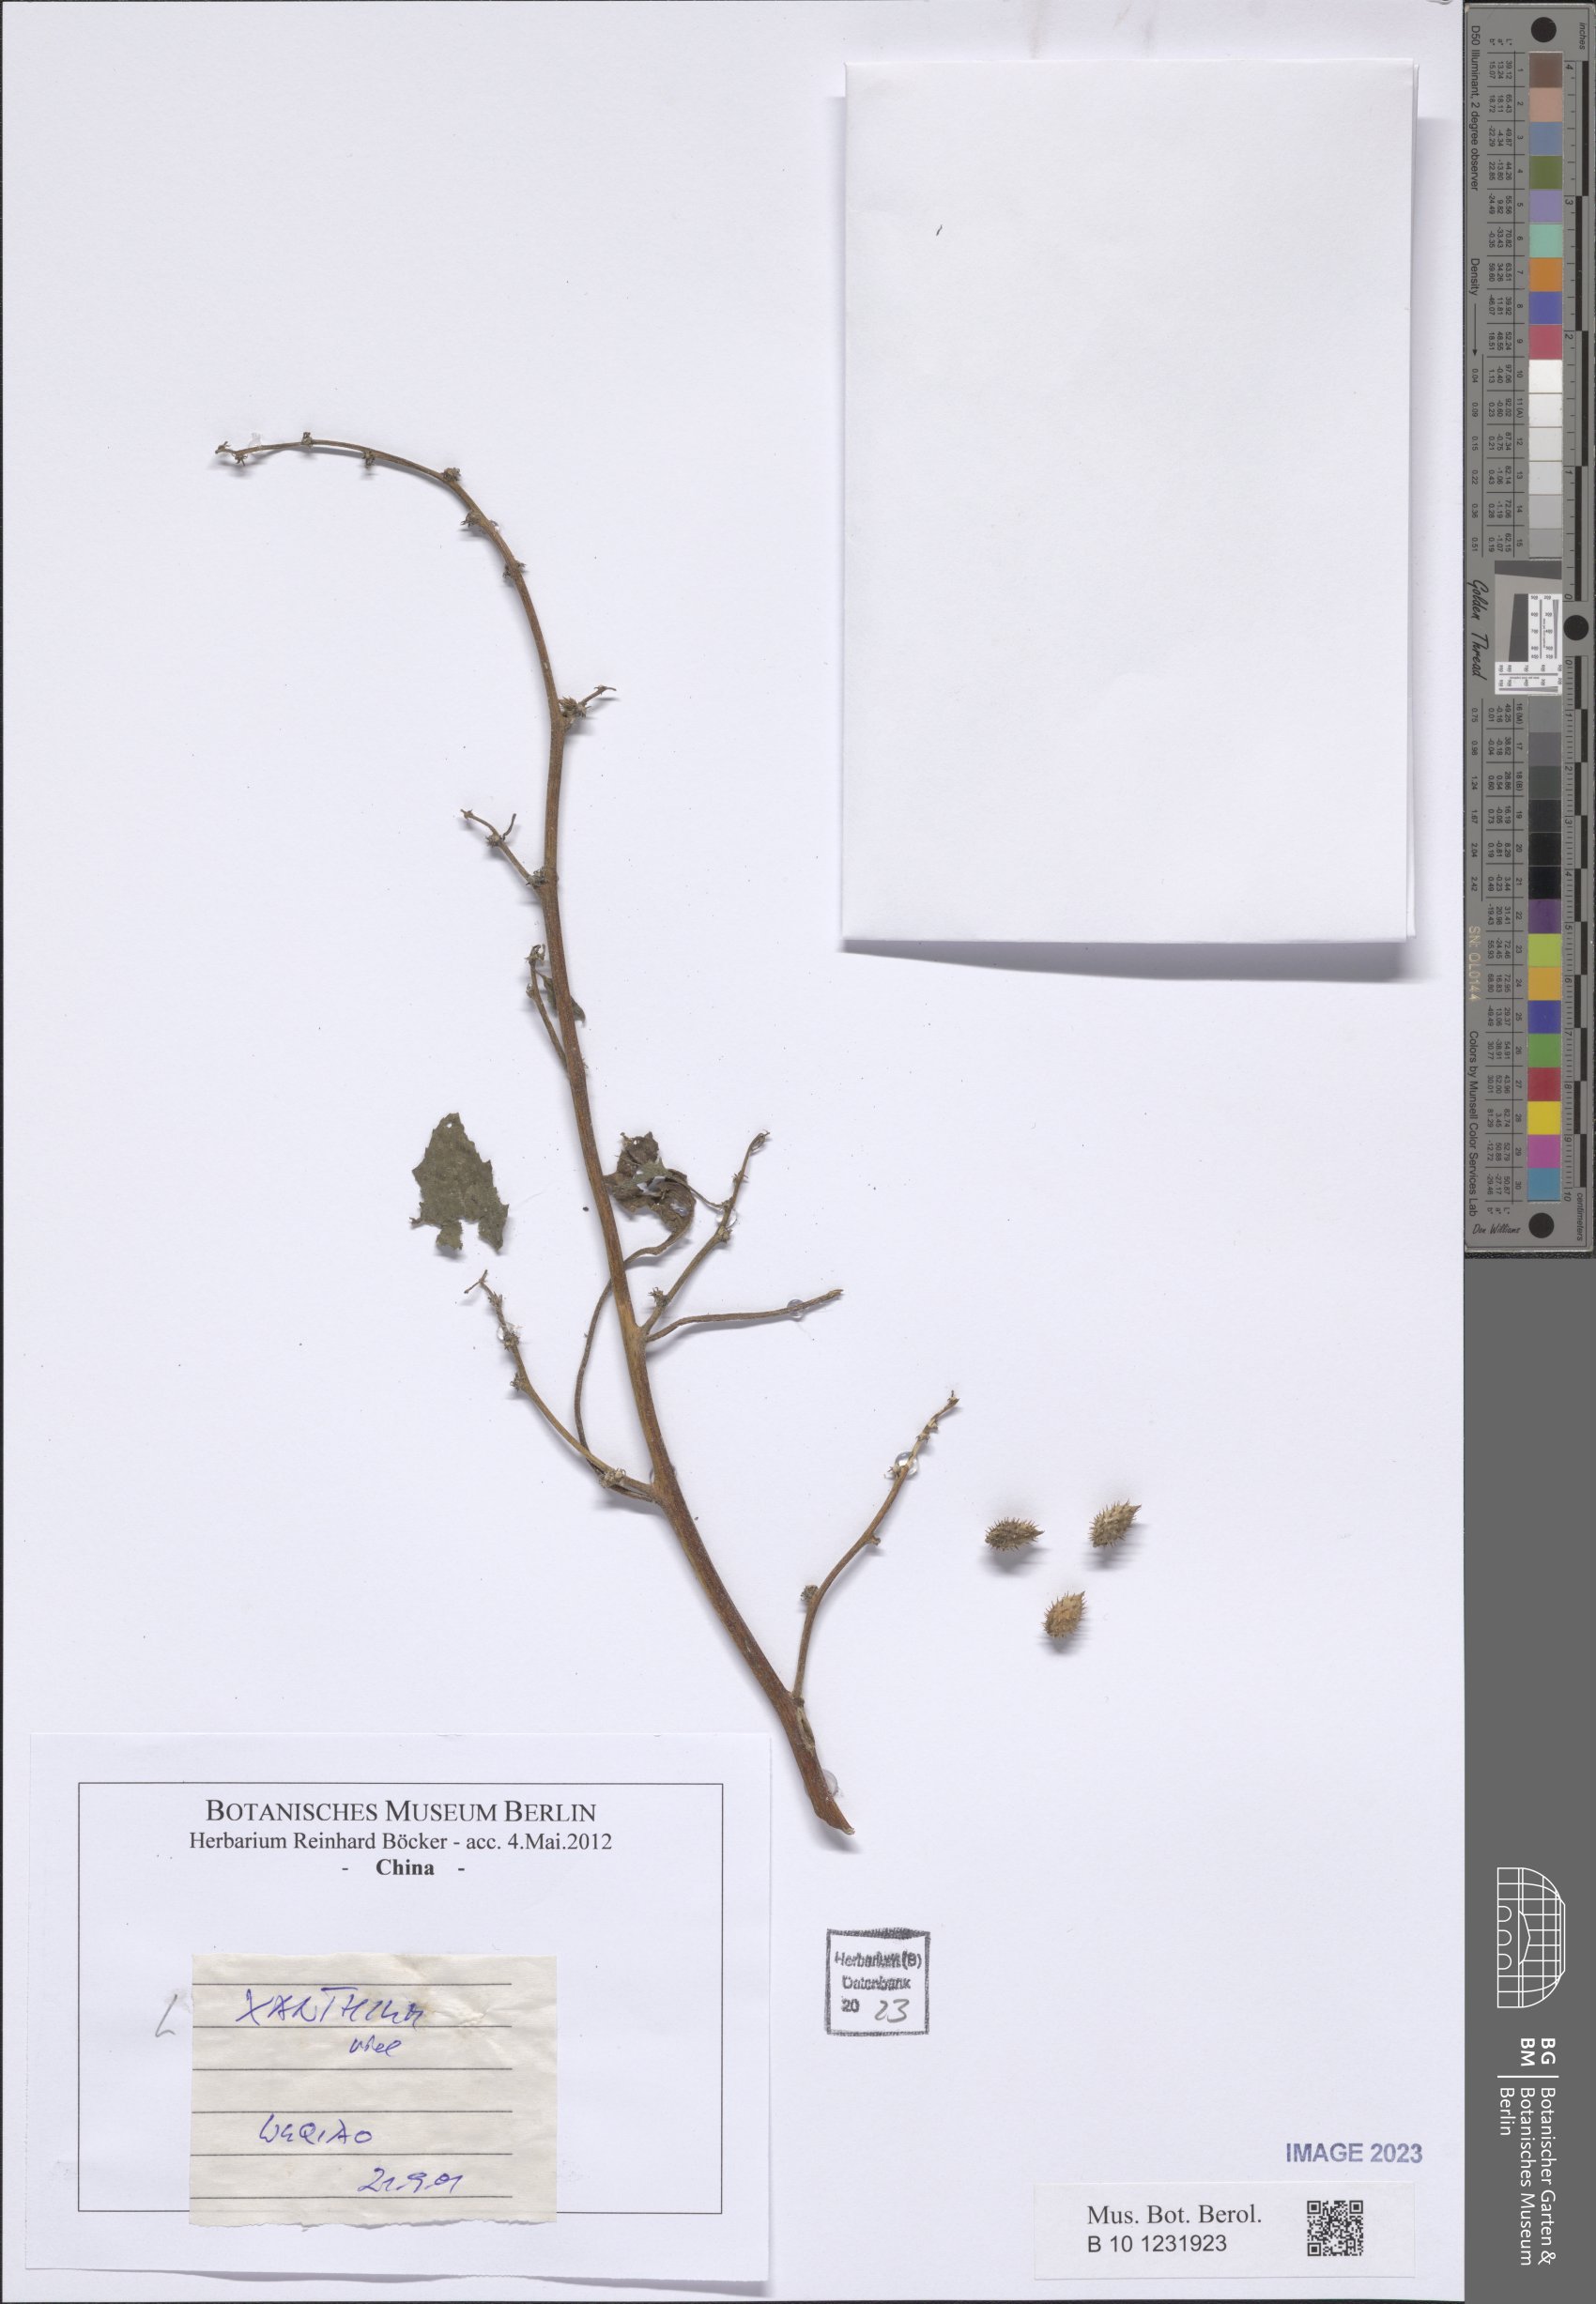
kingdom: Plantae
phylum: Tracheophyta
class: Magnoliopsida
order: Asterales
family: Asteraceae
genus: Xanthium
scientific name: Xanthium
